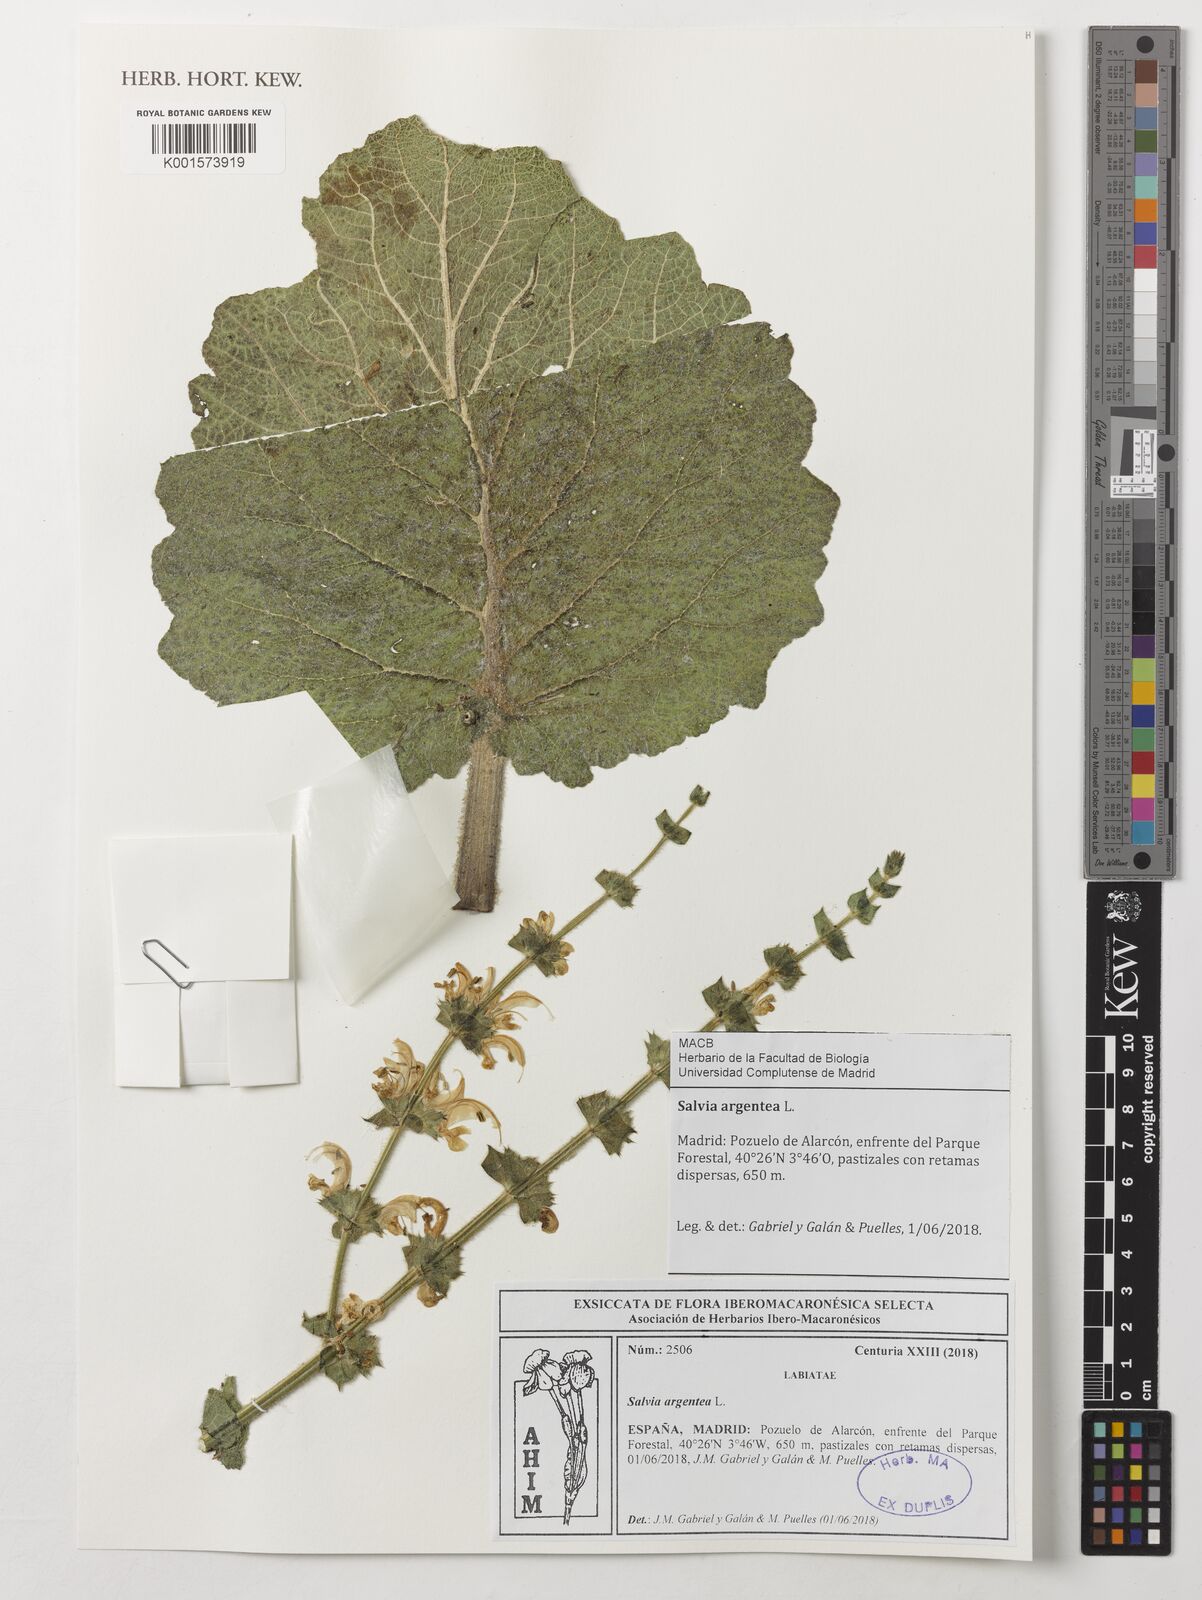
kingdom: Plantae
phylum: Tracheophyta
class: Magnoliopsida
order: Lamiales
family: Lamiaceae
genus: Salvia
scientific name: Salvia argentea
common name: Silver sage
